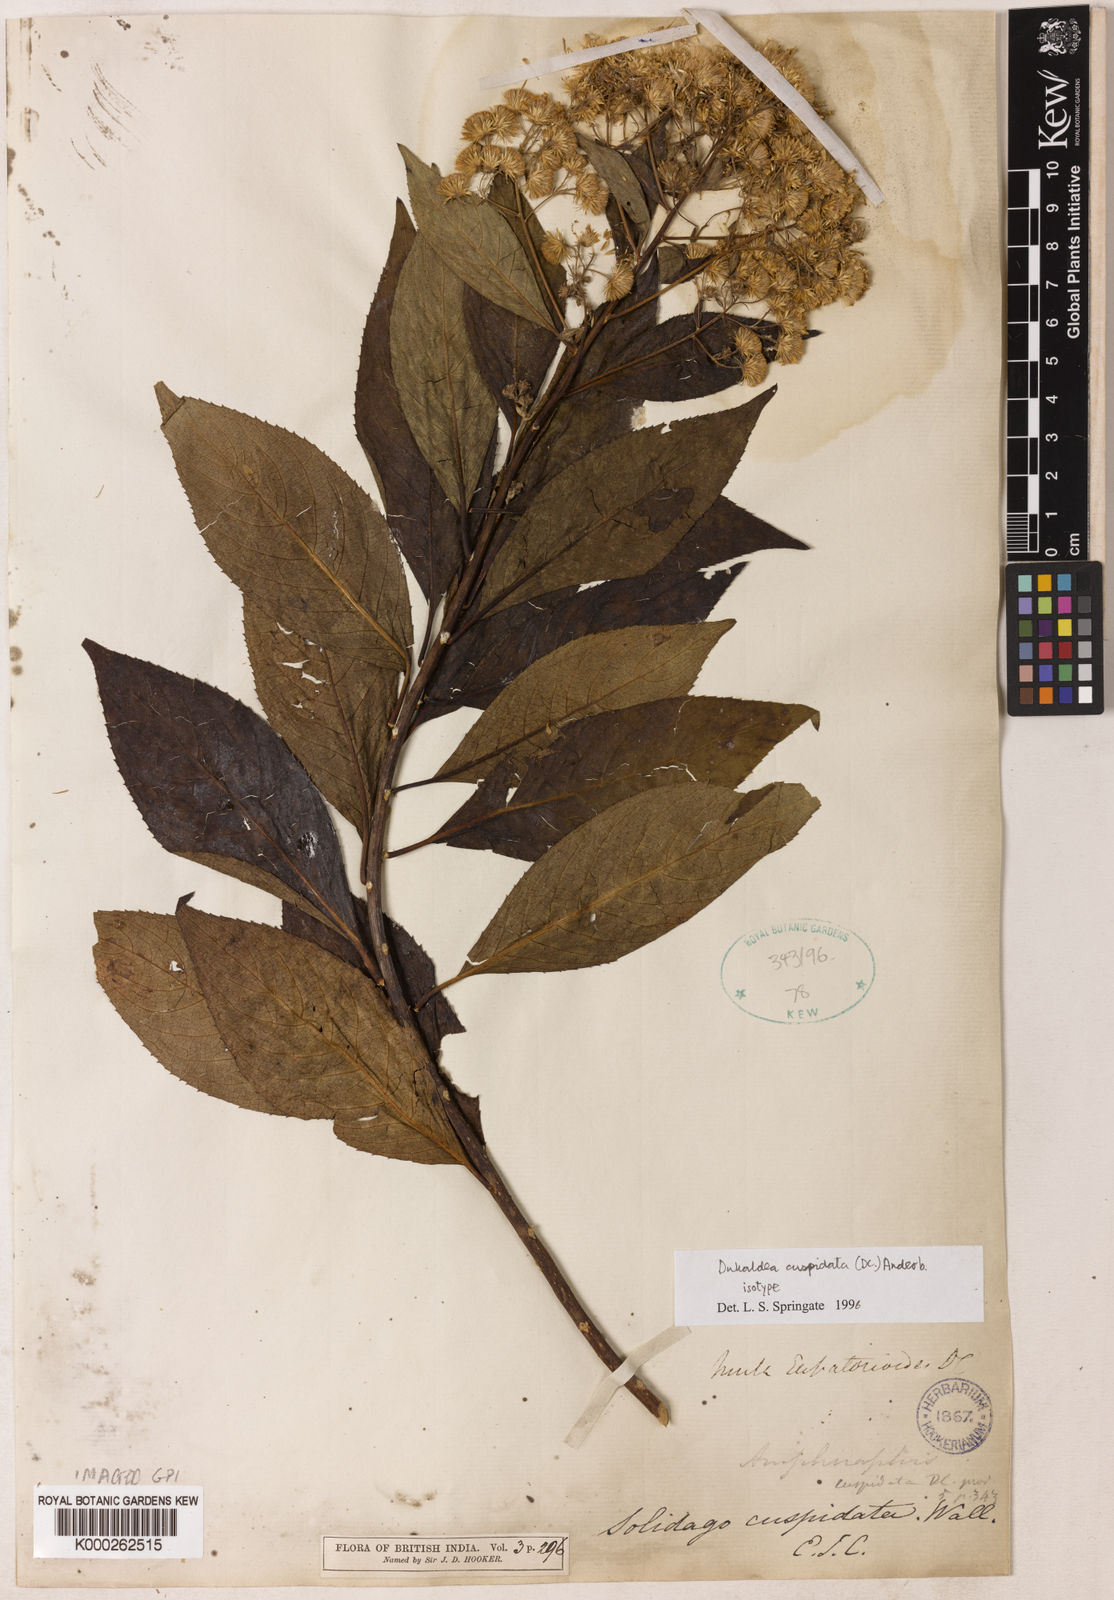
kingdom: Plantae
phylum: Tracheophyta
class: Magnoliopsida
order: Asterales
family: Asteraceae
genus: Duhaldea
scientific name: Duhaldea eupatorioides
